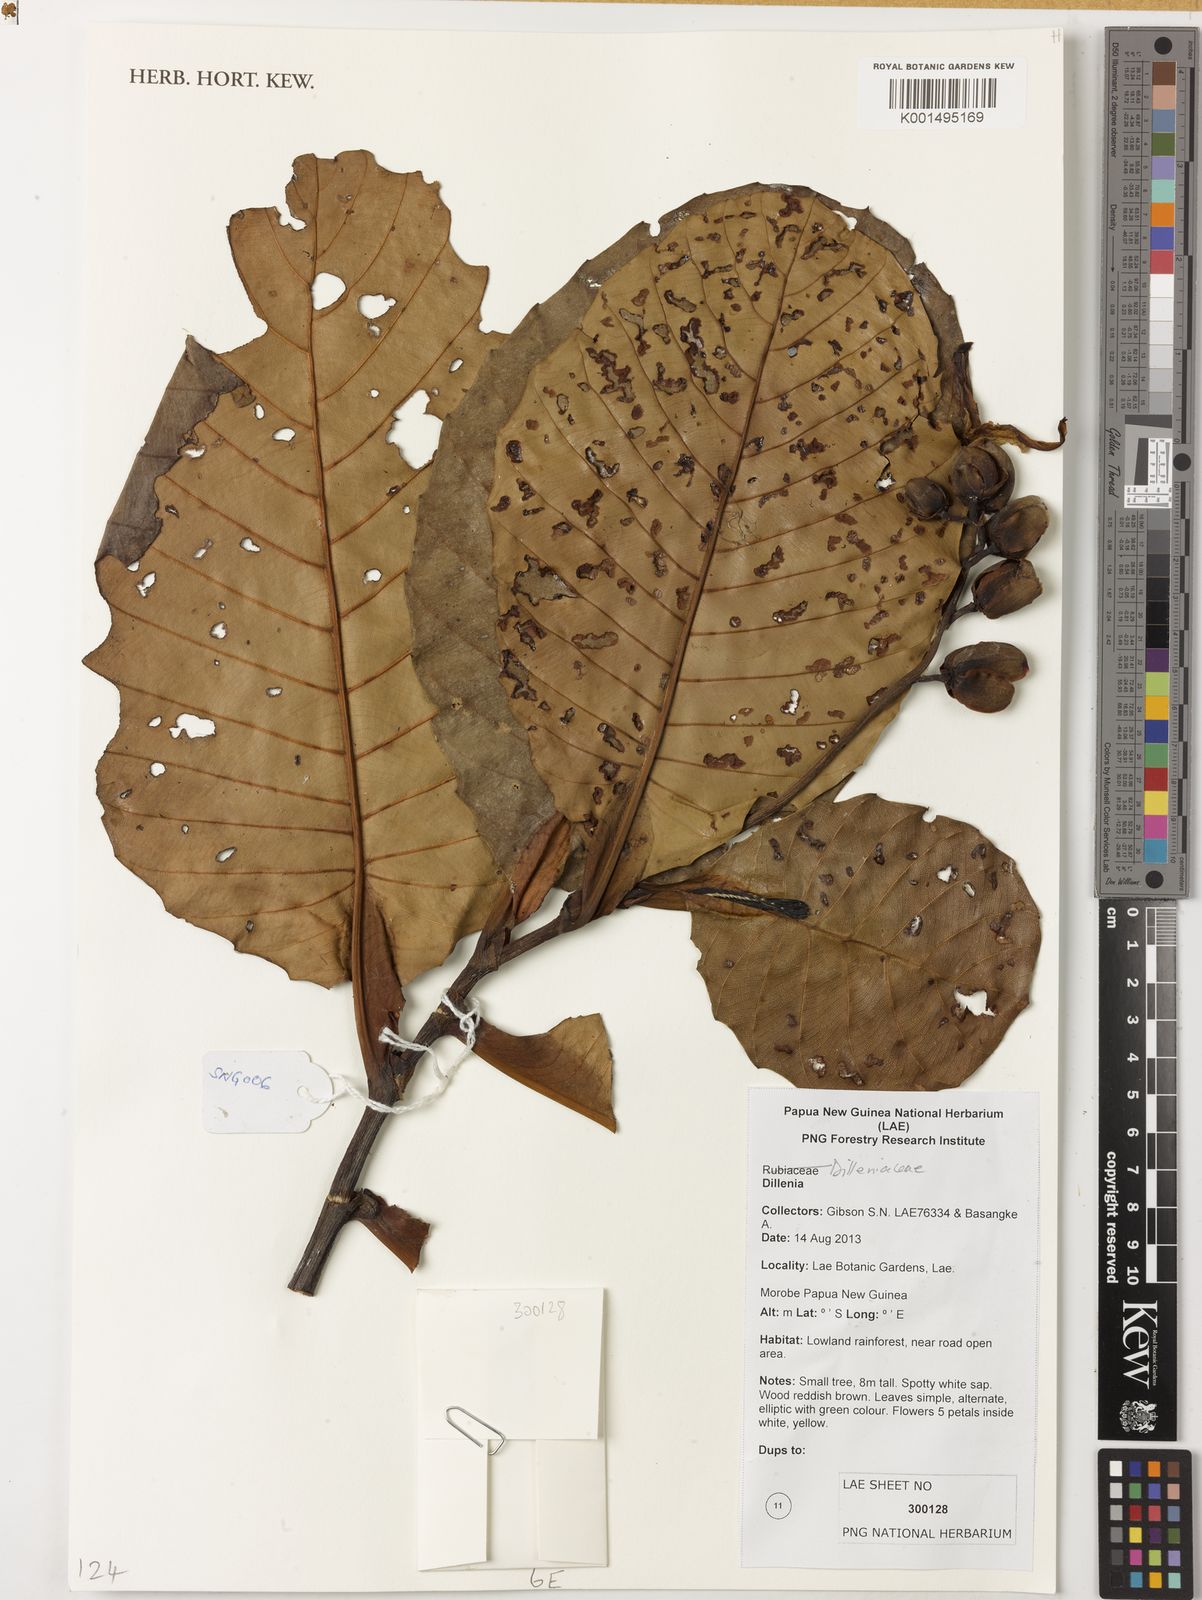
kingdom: Plantae
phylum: Tracheophyta
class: Magnoliopsida
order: Dilleniales
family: Dilleniaceae
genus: Dillenia
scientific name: Dillenia
